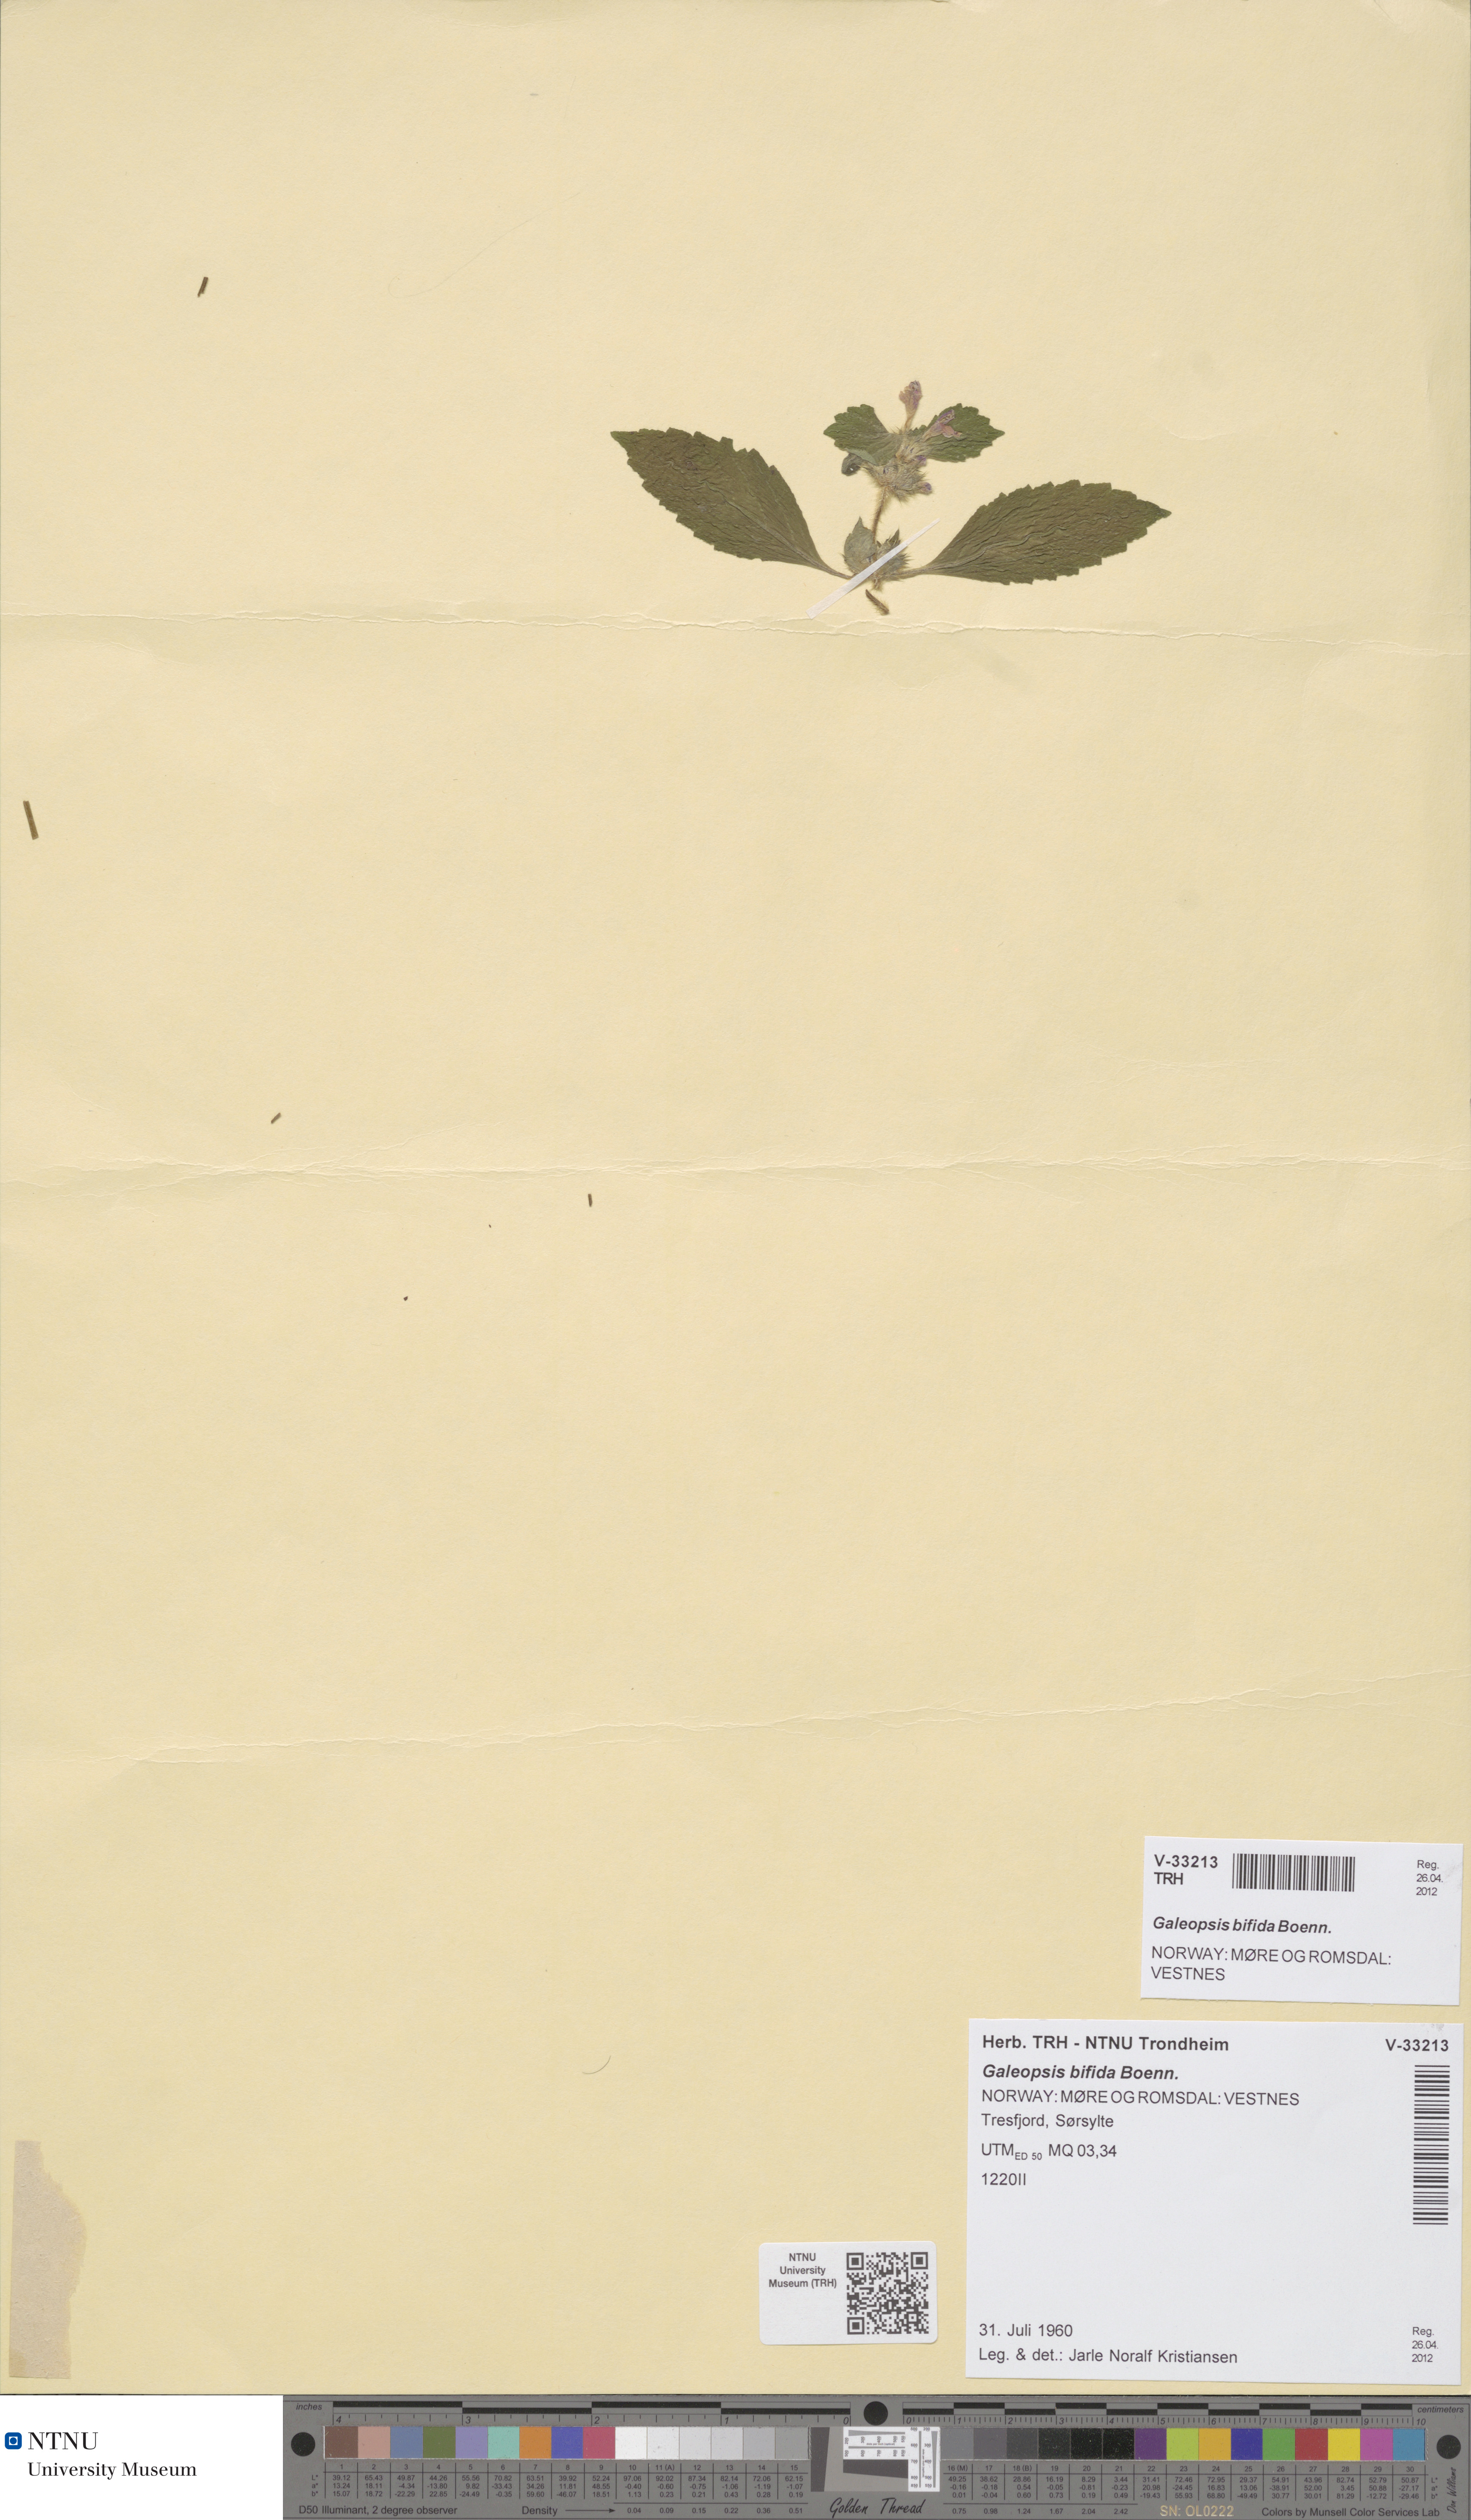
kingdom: Plantae
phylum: Tracheophyta
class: Magnoliopsida
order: Lamiales
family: Lamiaceae
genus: Galeopsis
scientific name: Galeopsis bifida
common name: Bifid hemp-nettle
